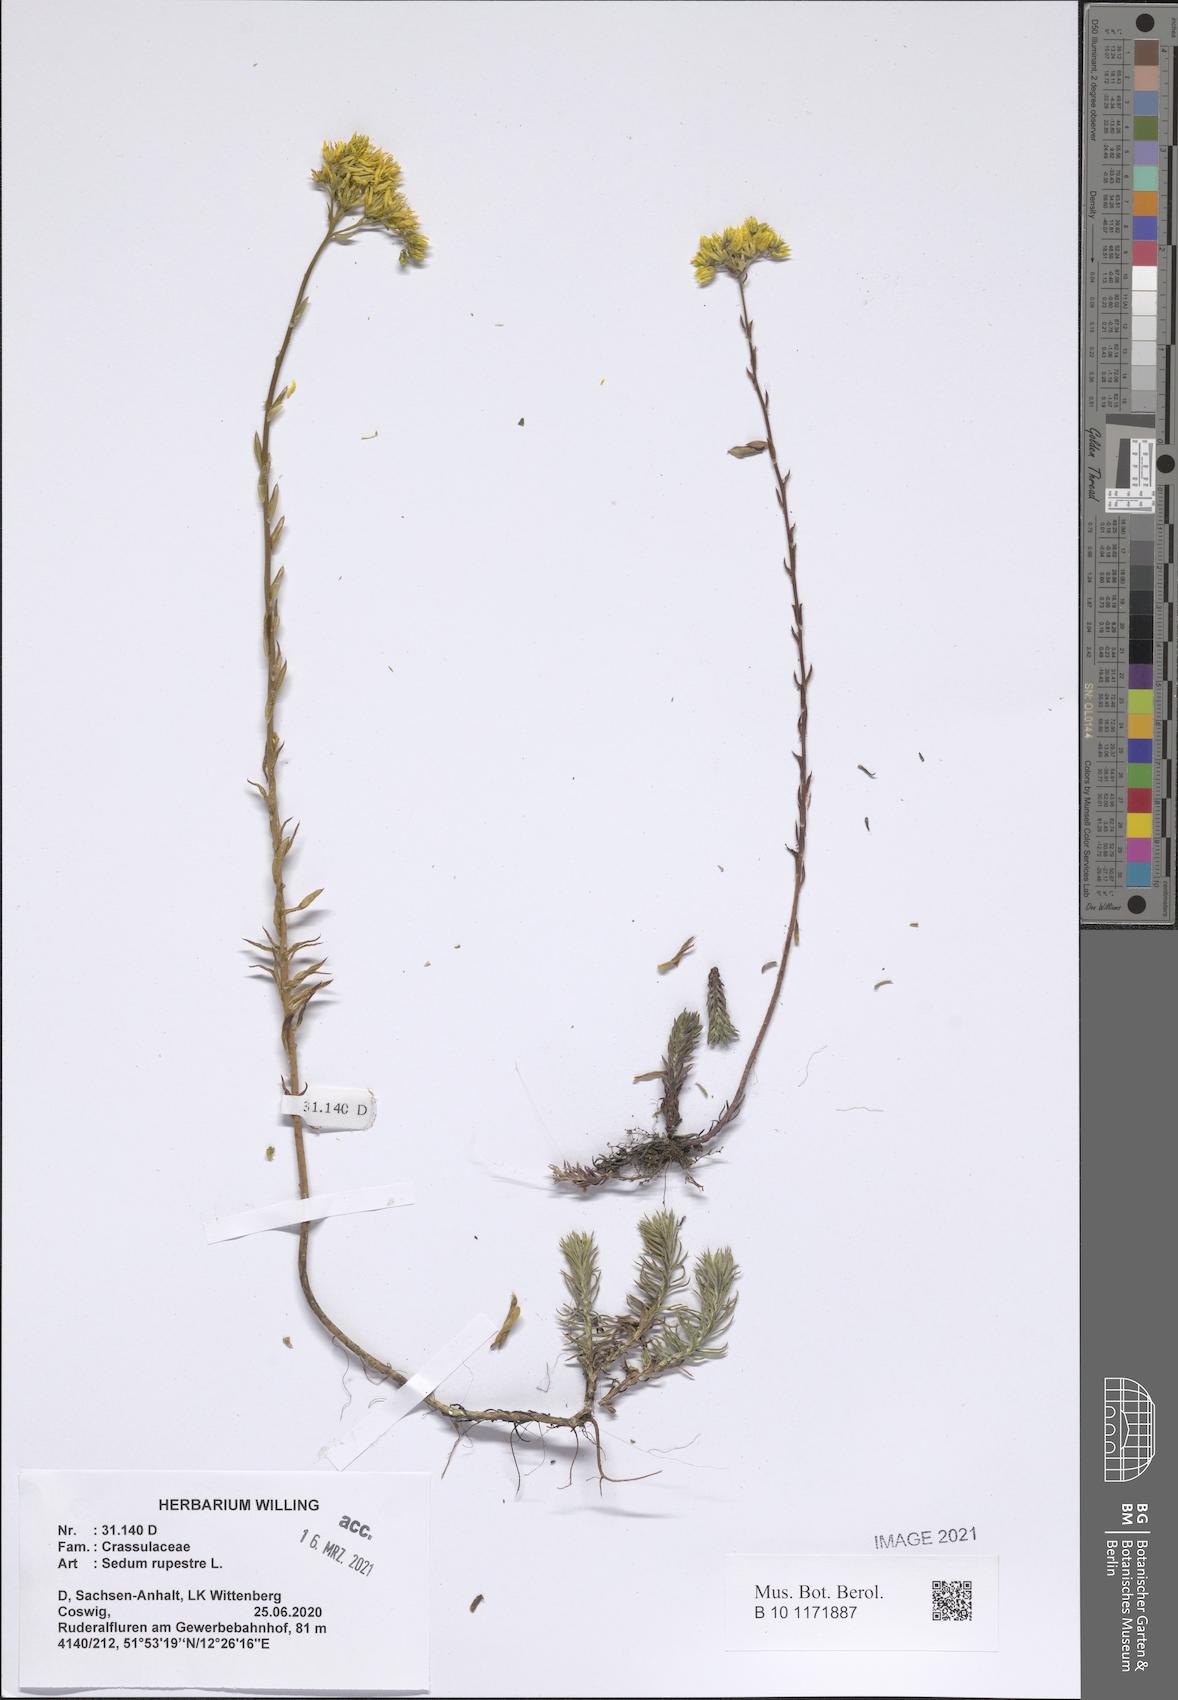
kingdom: Plantae
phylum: Tracheophyta
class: Magnoliopsida
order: Saxifragales
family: Crassulaceae
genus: Petrosedum
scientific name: Petrosedum rupestre
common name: Jenny's stonecrop
